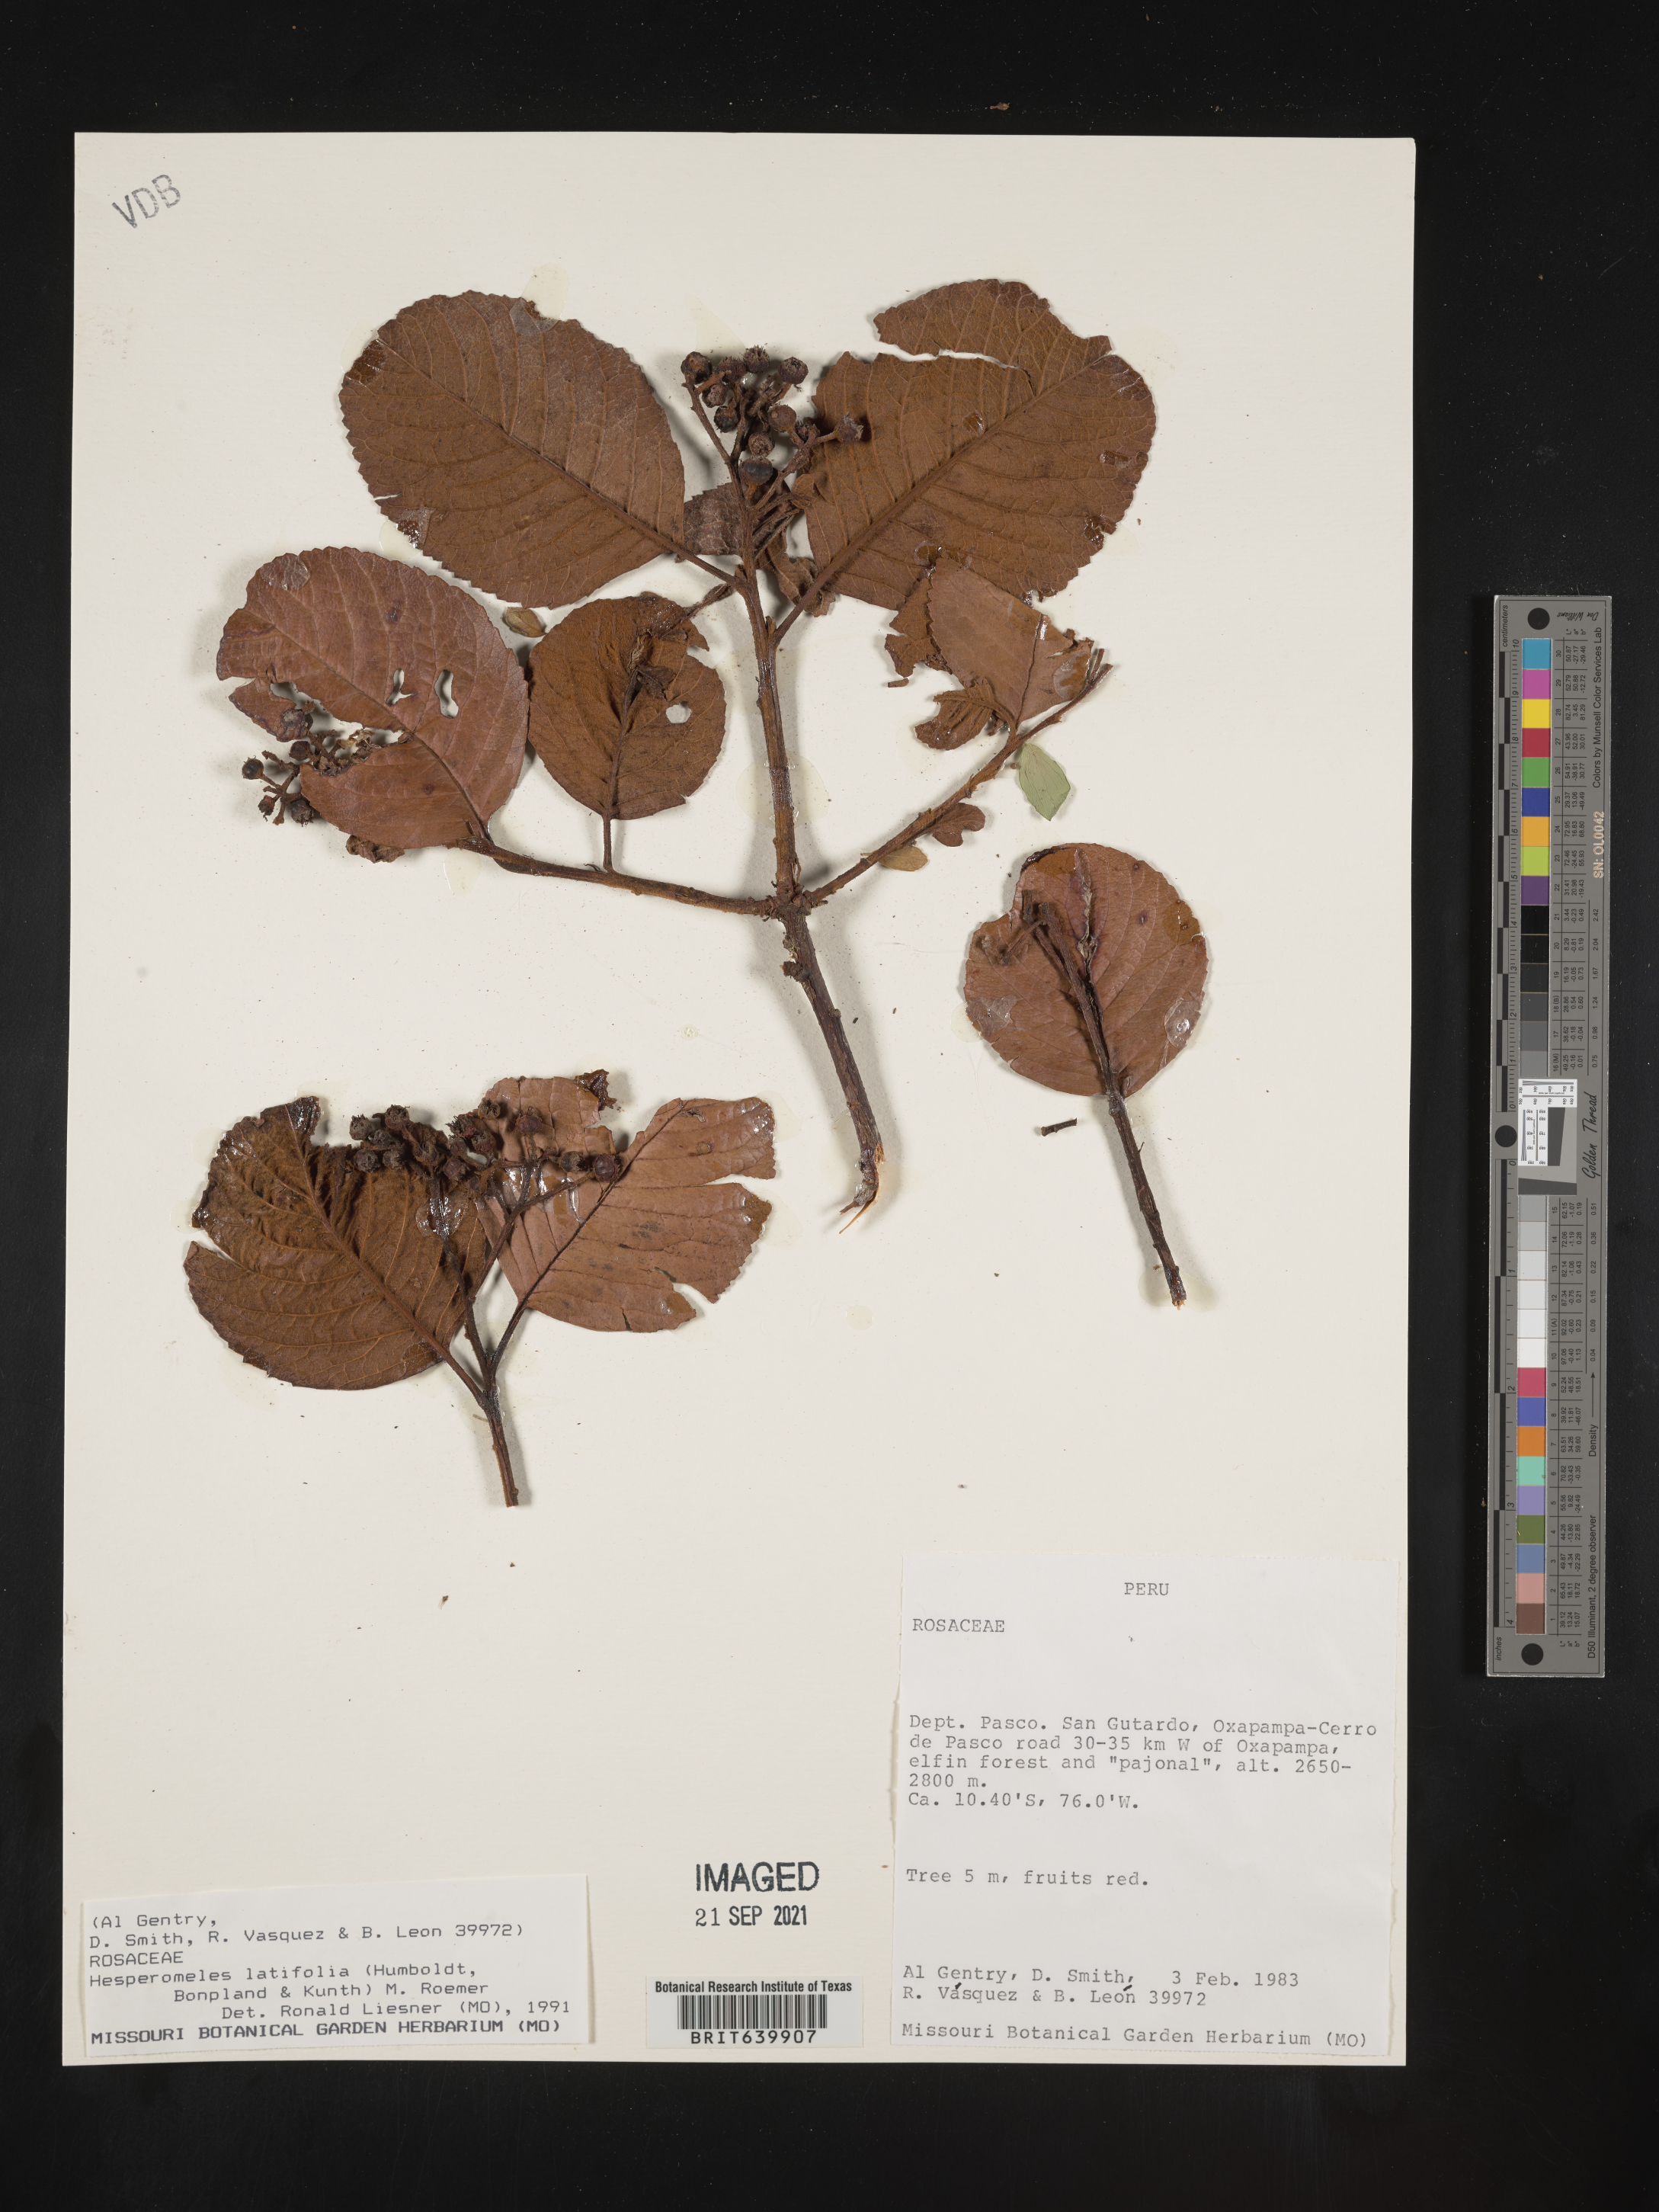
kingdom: Plantae
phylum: Tracheophyta
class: Magnoliopsida
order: Rosales
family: Rosaceae
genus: Hesperomeles
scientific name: Hesperomeles
